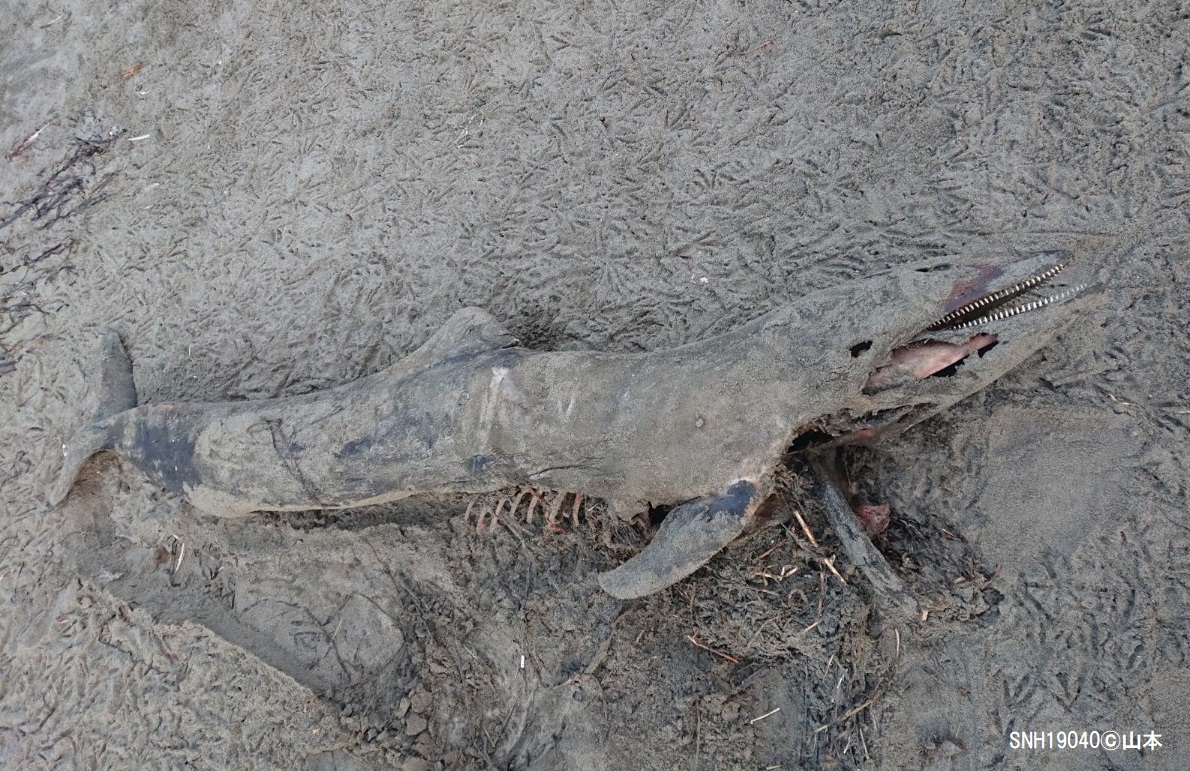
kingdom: Animalia
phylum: Chordata
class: Mammalia
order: Cetacea
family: Delphinidae
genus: Lagenorhynchus
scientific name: Lagenorhynchus obliquidens
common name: Pacific white-sided dolphin
